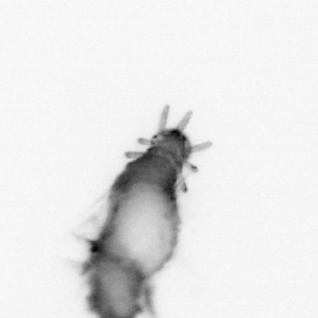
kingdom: Animalia
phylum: Annelida
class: Polychaeta
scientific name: Polychaeta
